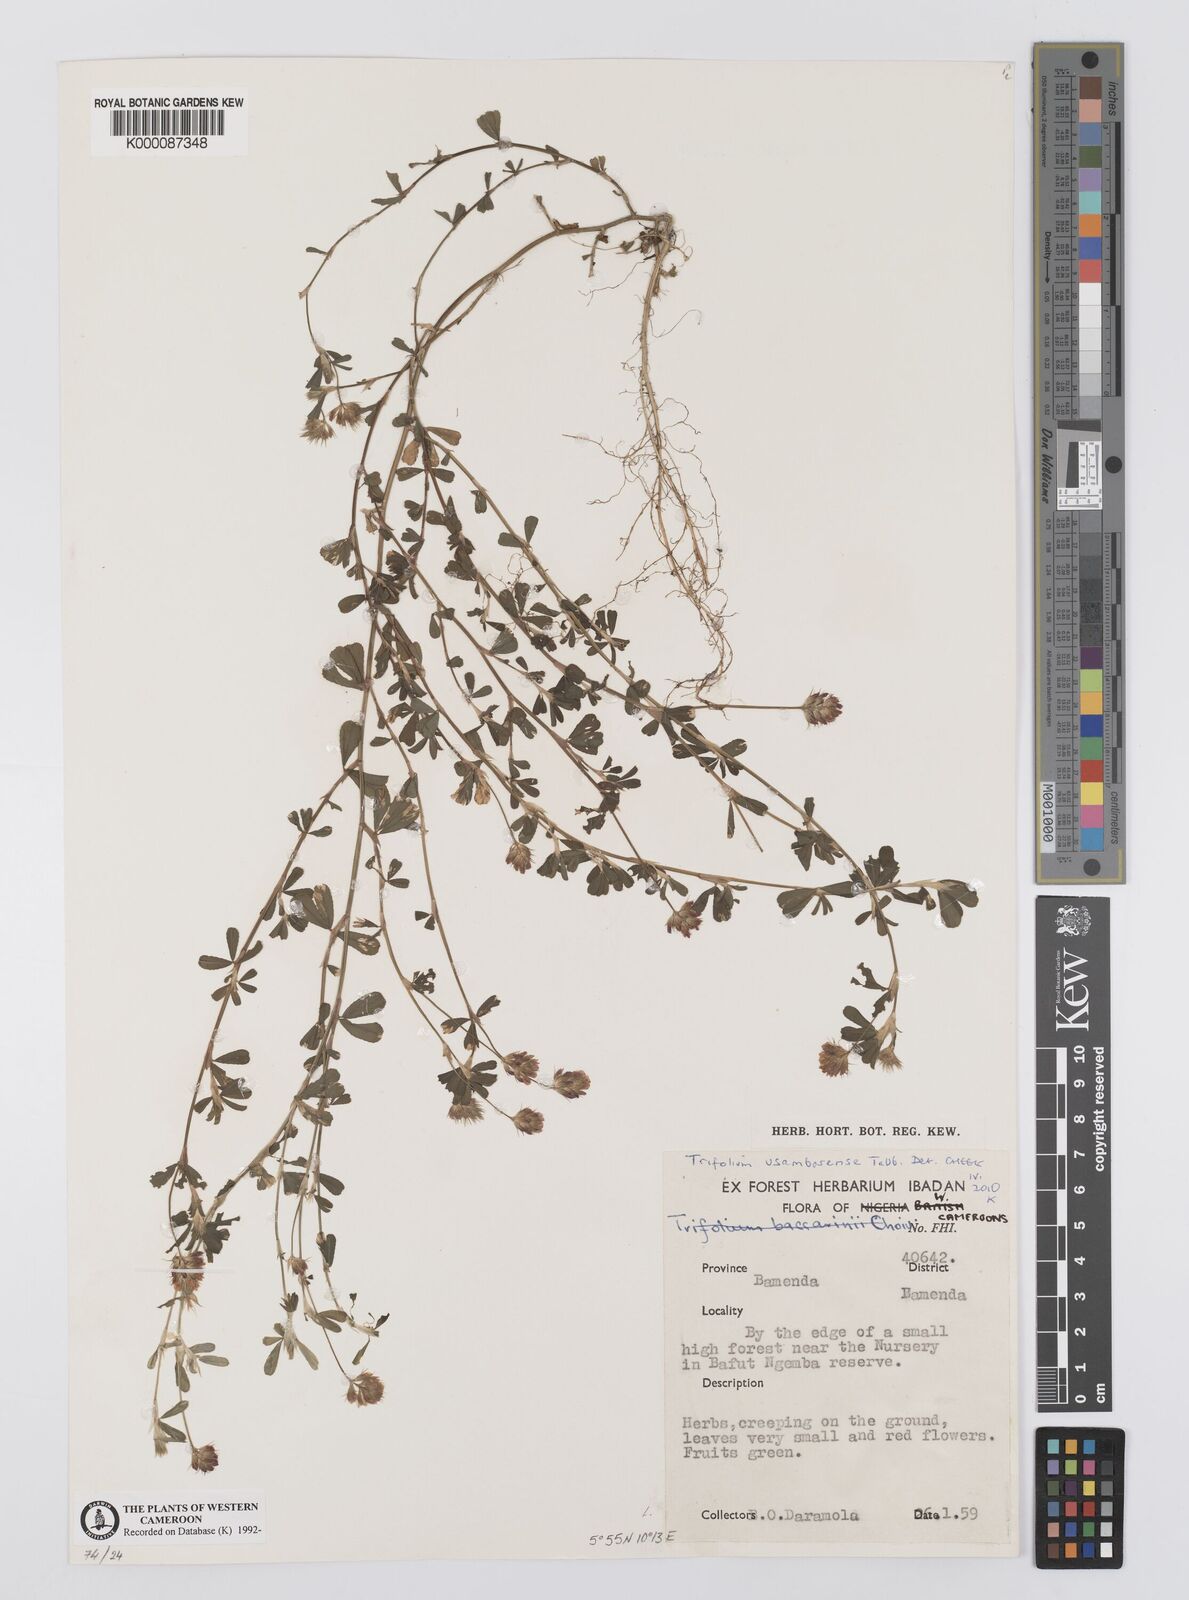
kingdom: Plantae
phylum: Tracheophyta
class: Magnoliopsida
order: Fabales
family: Fabaceae
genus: Trifolium
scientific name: Trifolium usambarense
